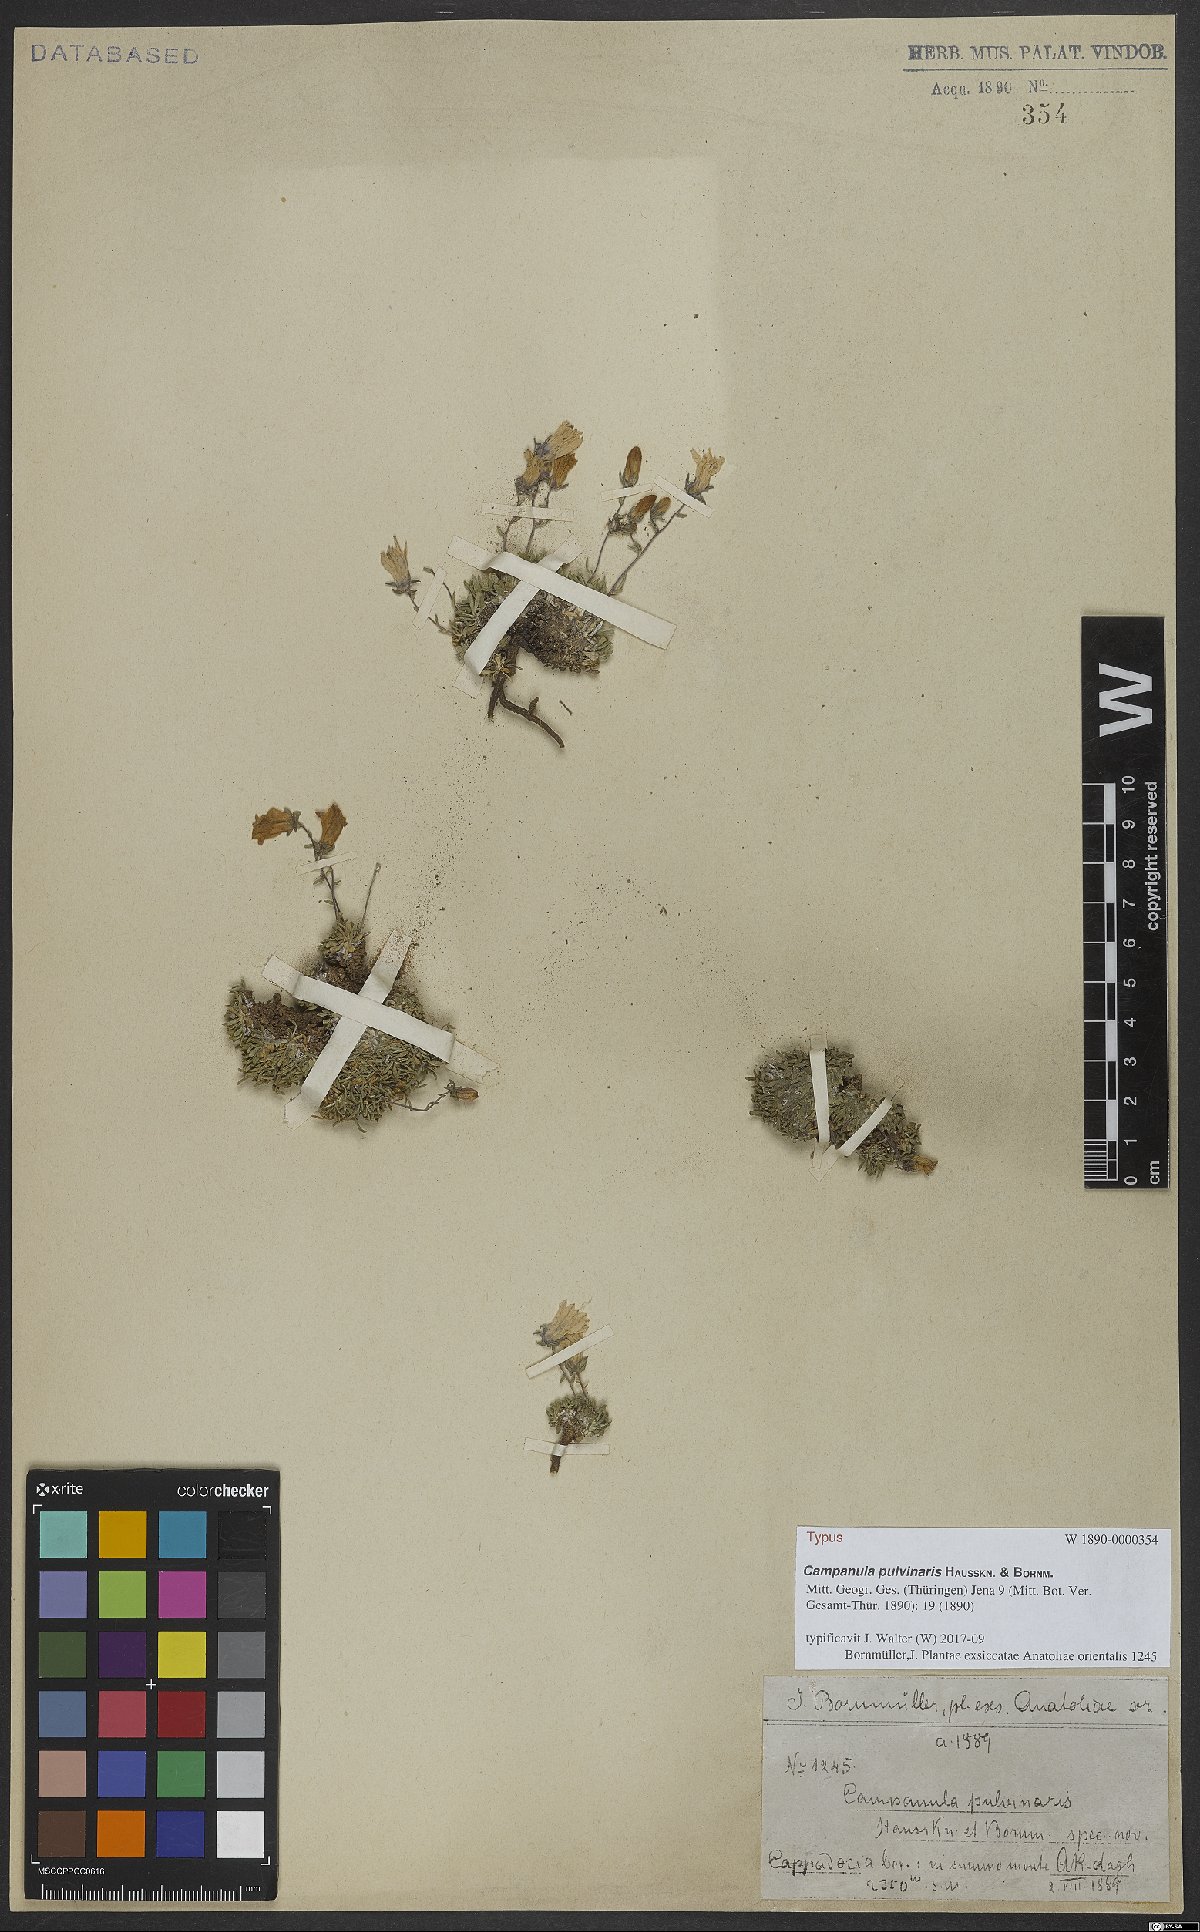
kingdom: Plantae
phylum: Tracheophyta
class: Magnoliopsida
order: Asterales
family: Campanulaceae
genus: Campanula
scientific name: Campanula pulvinaris
